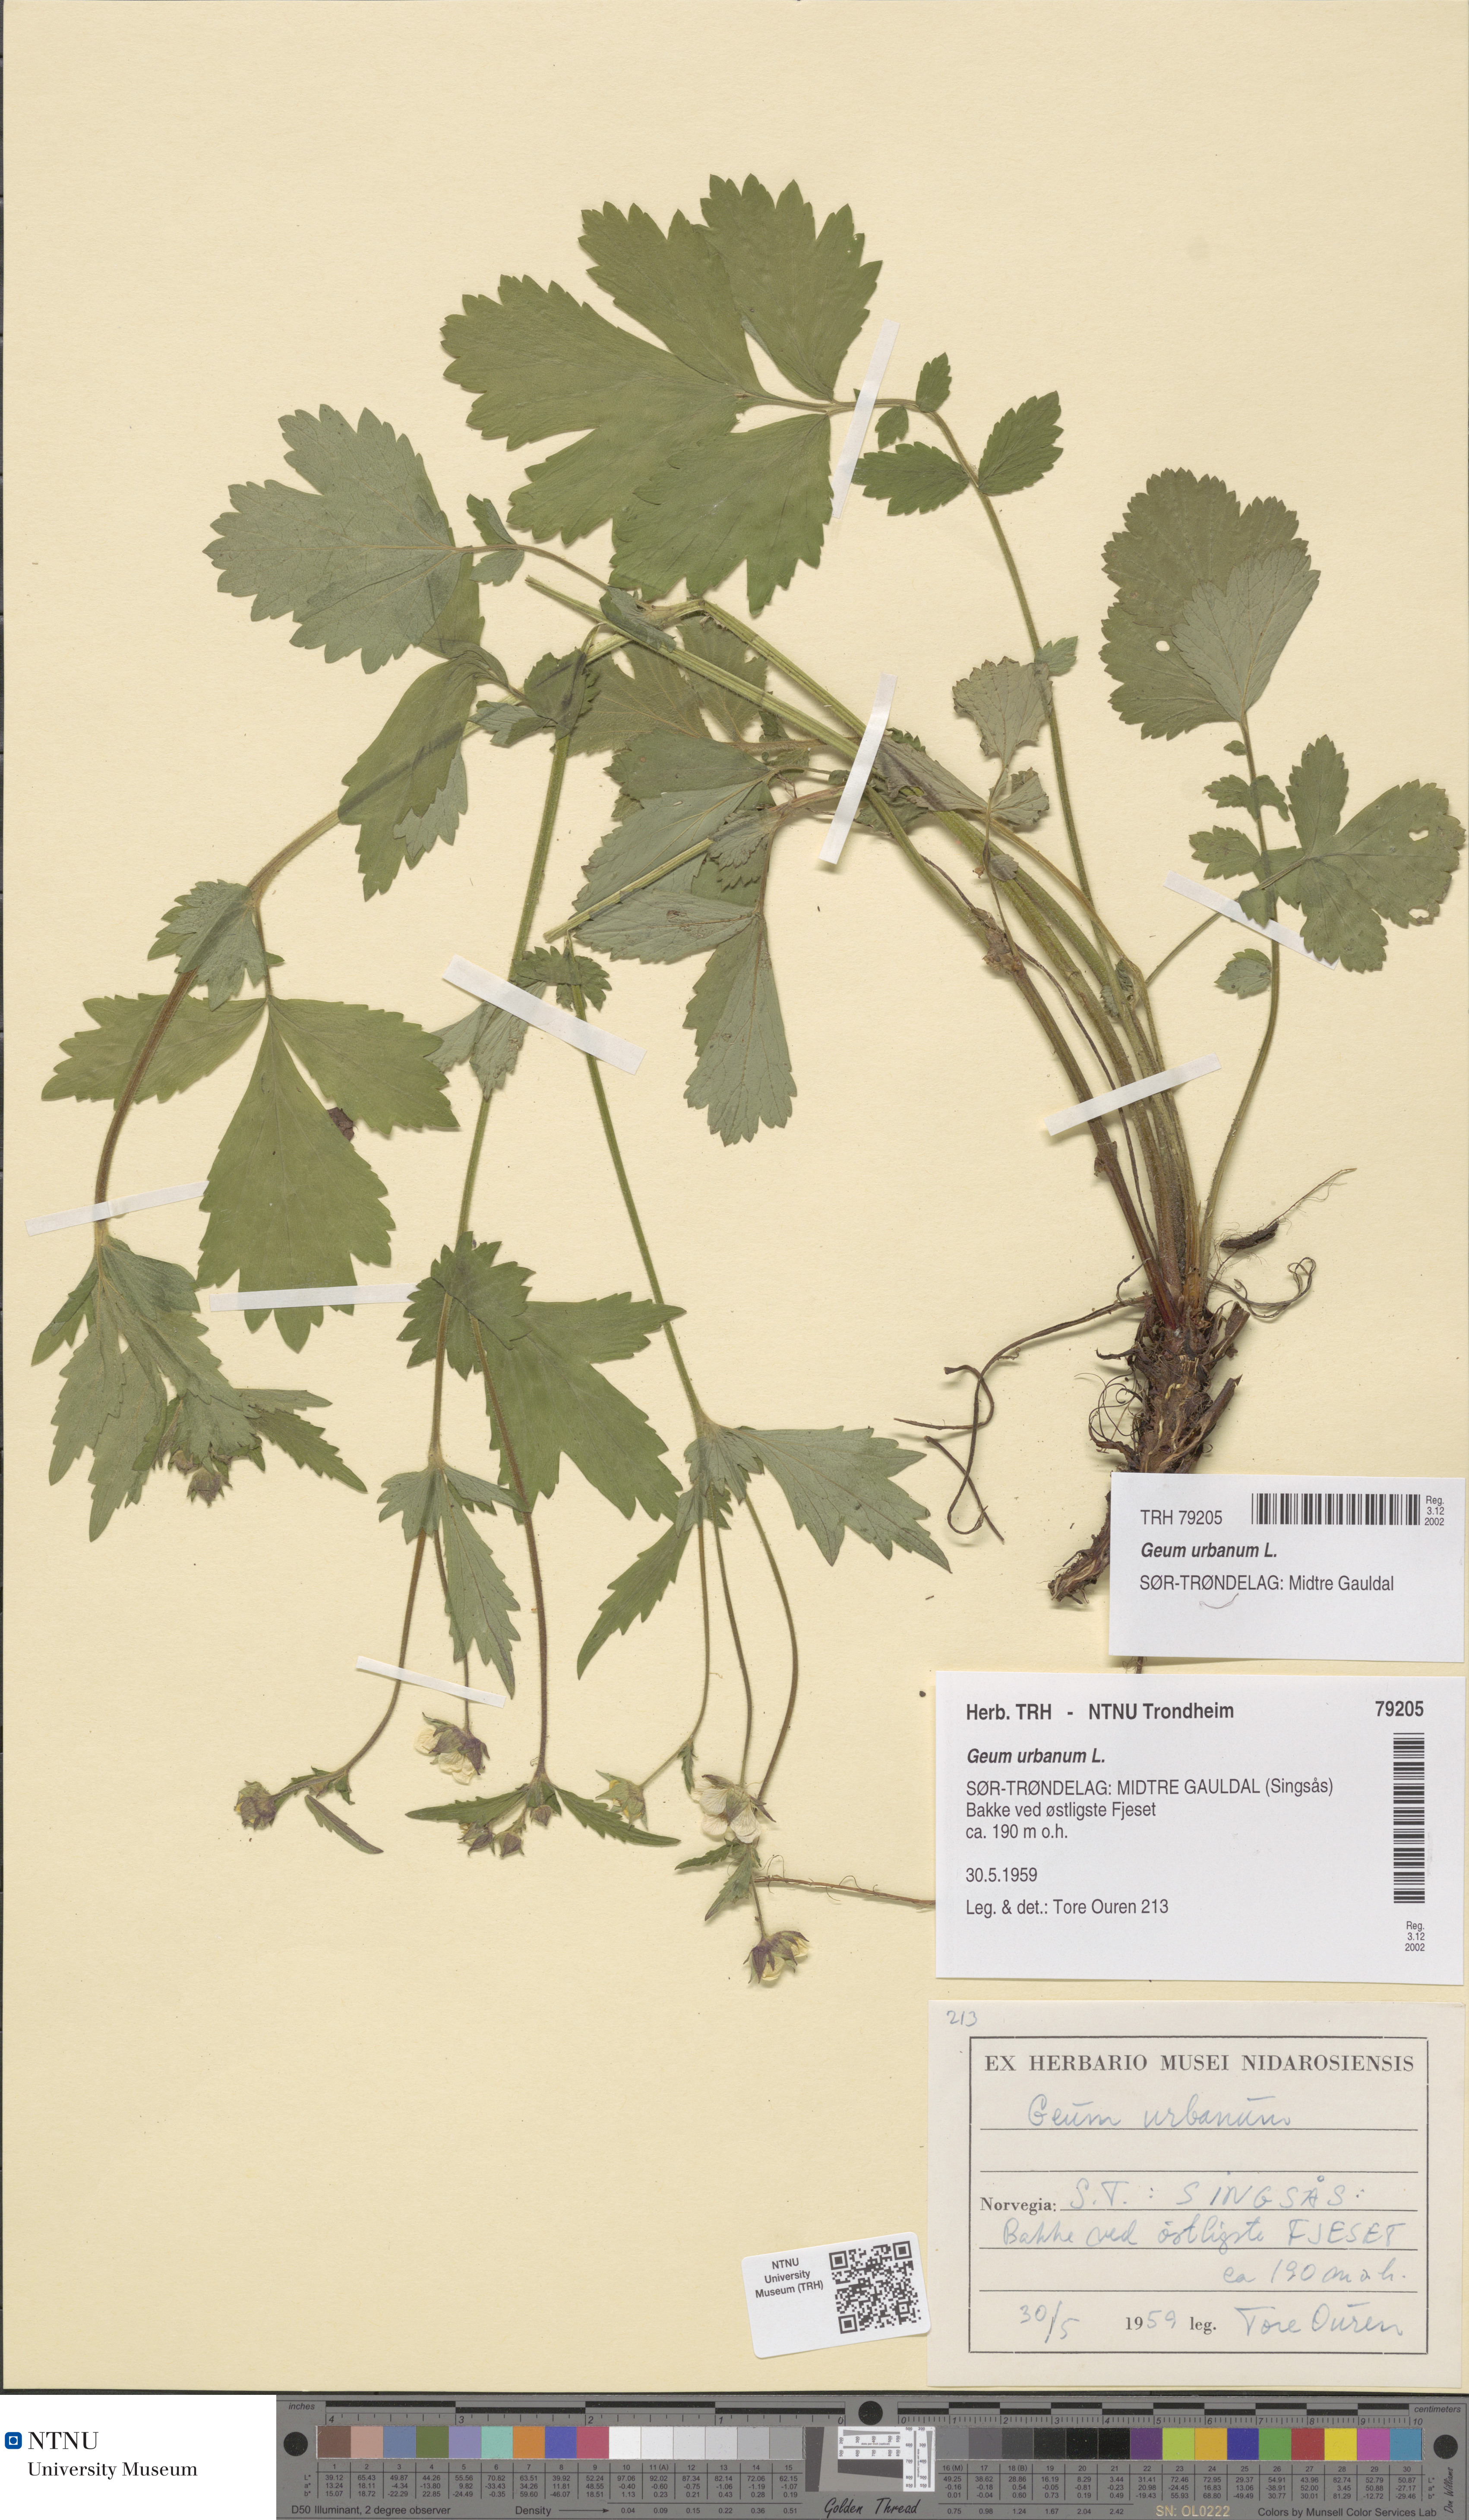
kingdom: Plantae
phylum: Tracheophyta
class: Magnoliopsida
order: Rosales
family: Rosaceae
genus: Geum
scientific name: Geum urbanum
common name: Wood avens
